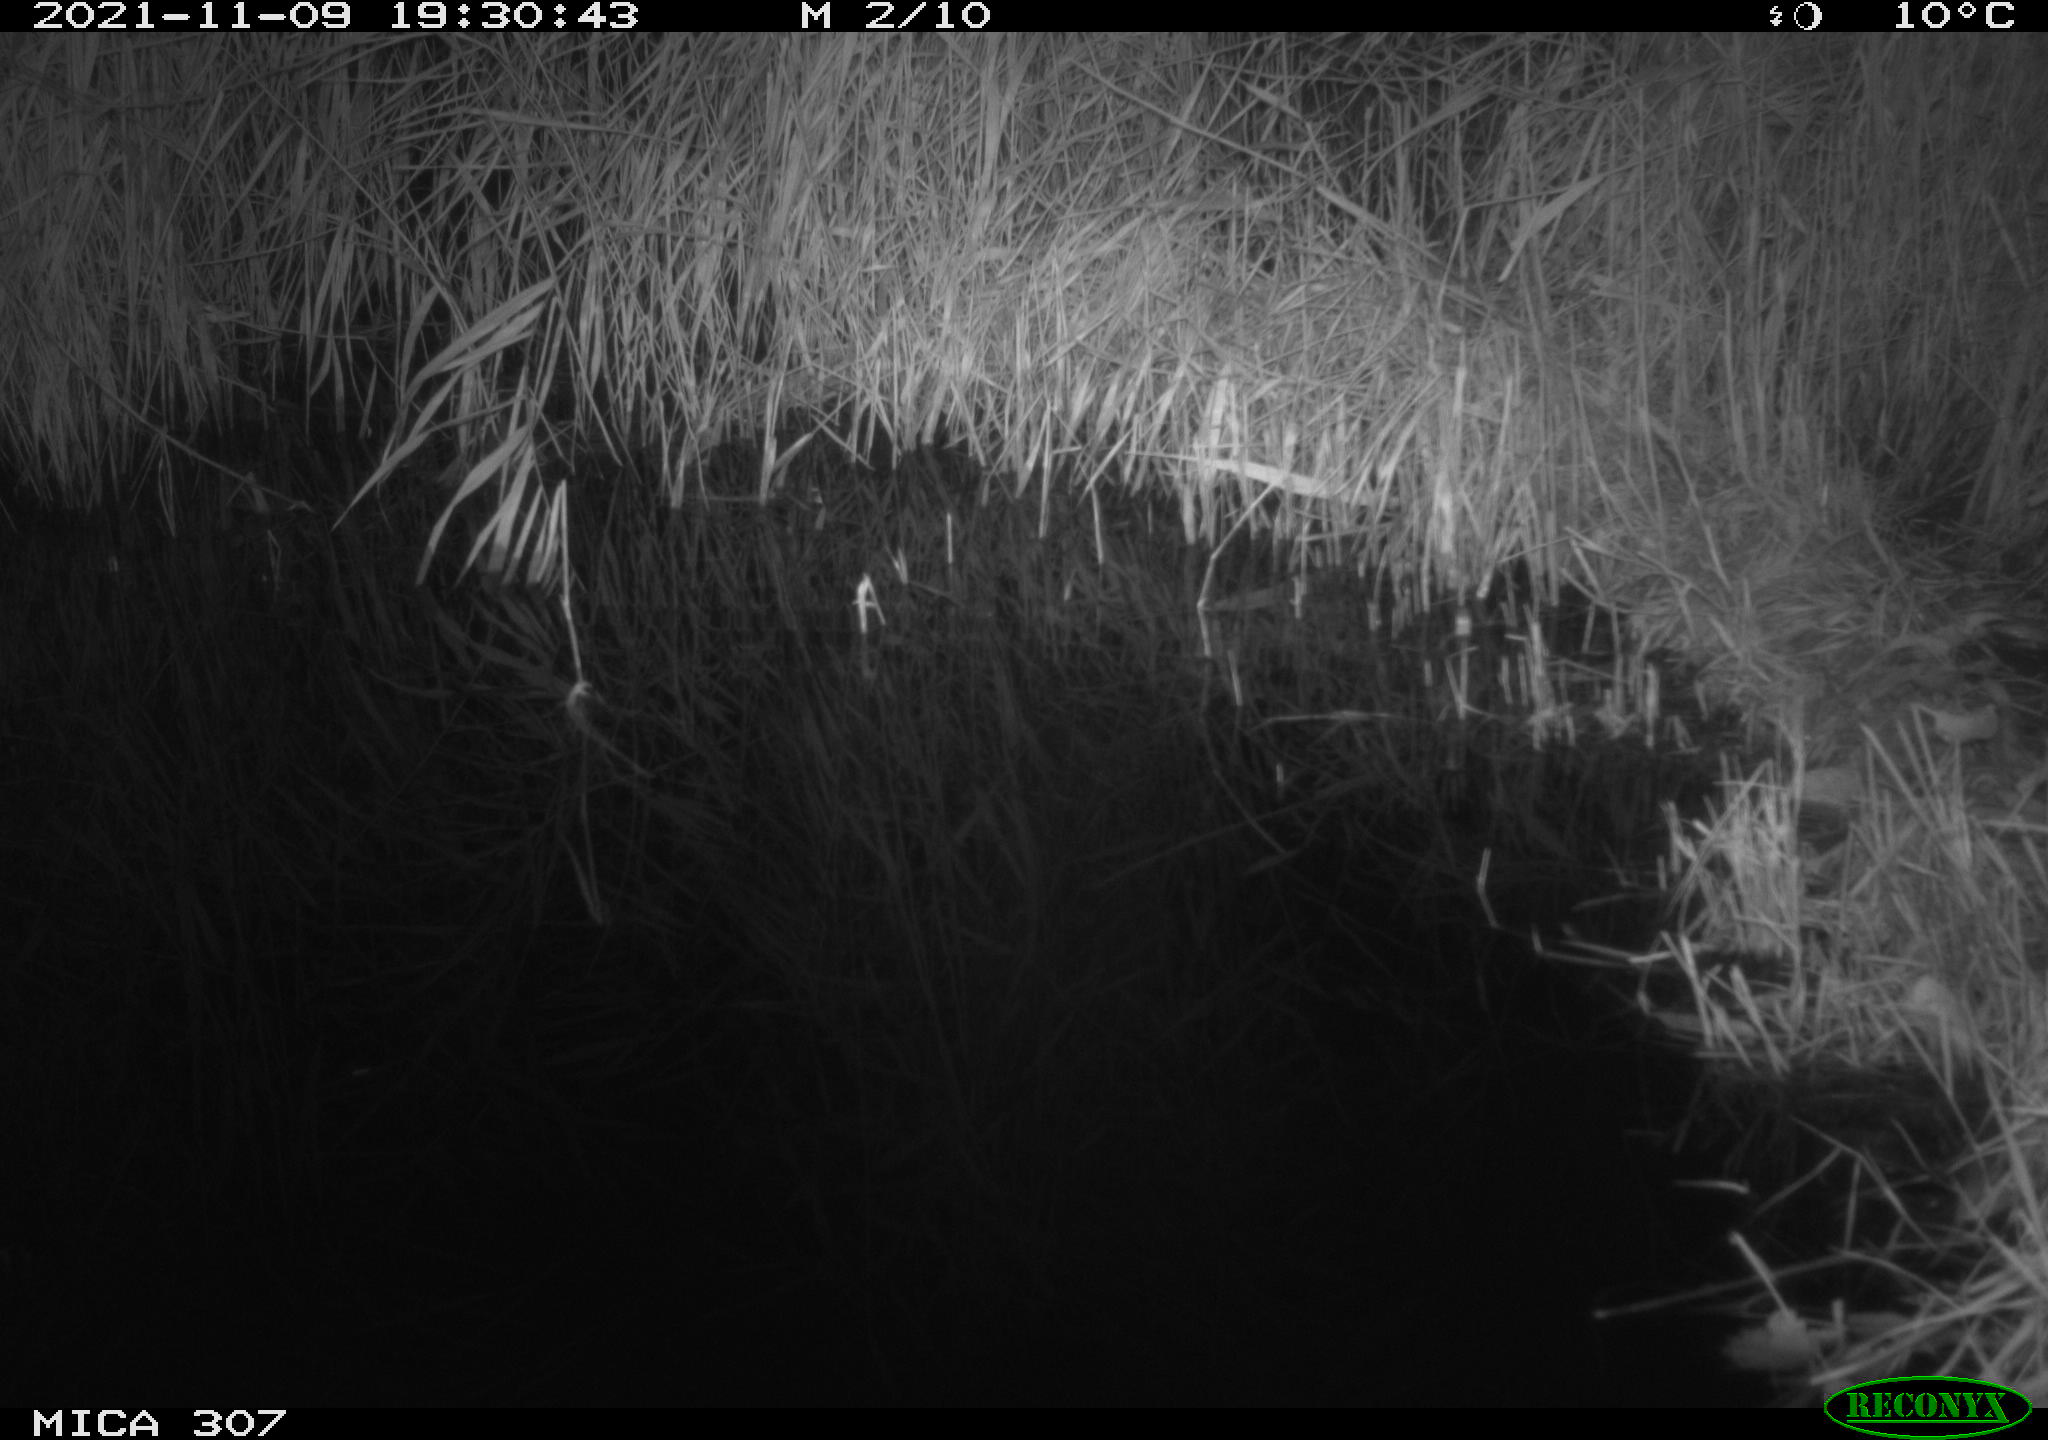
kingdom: Animalia
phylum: Chordata
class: Mammalia
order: Rodentia
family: Muridae
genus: Rattus
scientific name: Rattus norvegicus
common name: Brown rat
